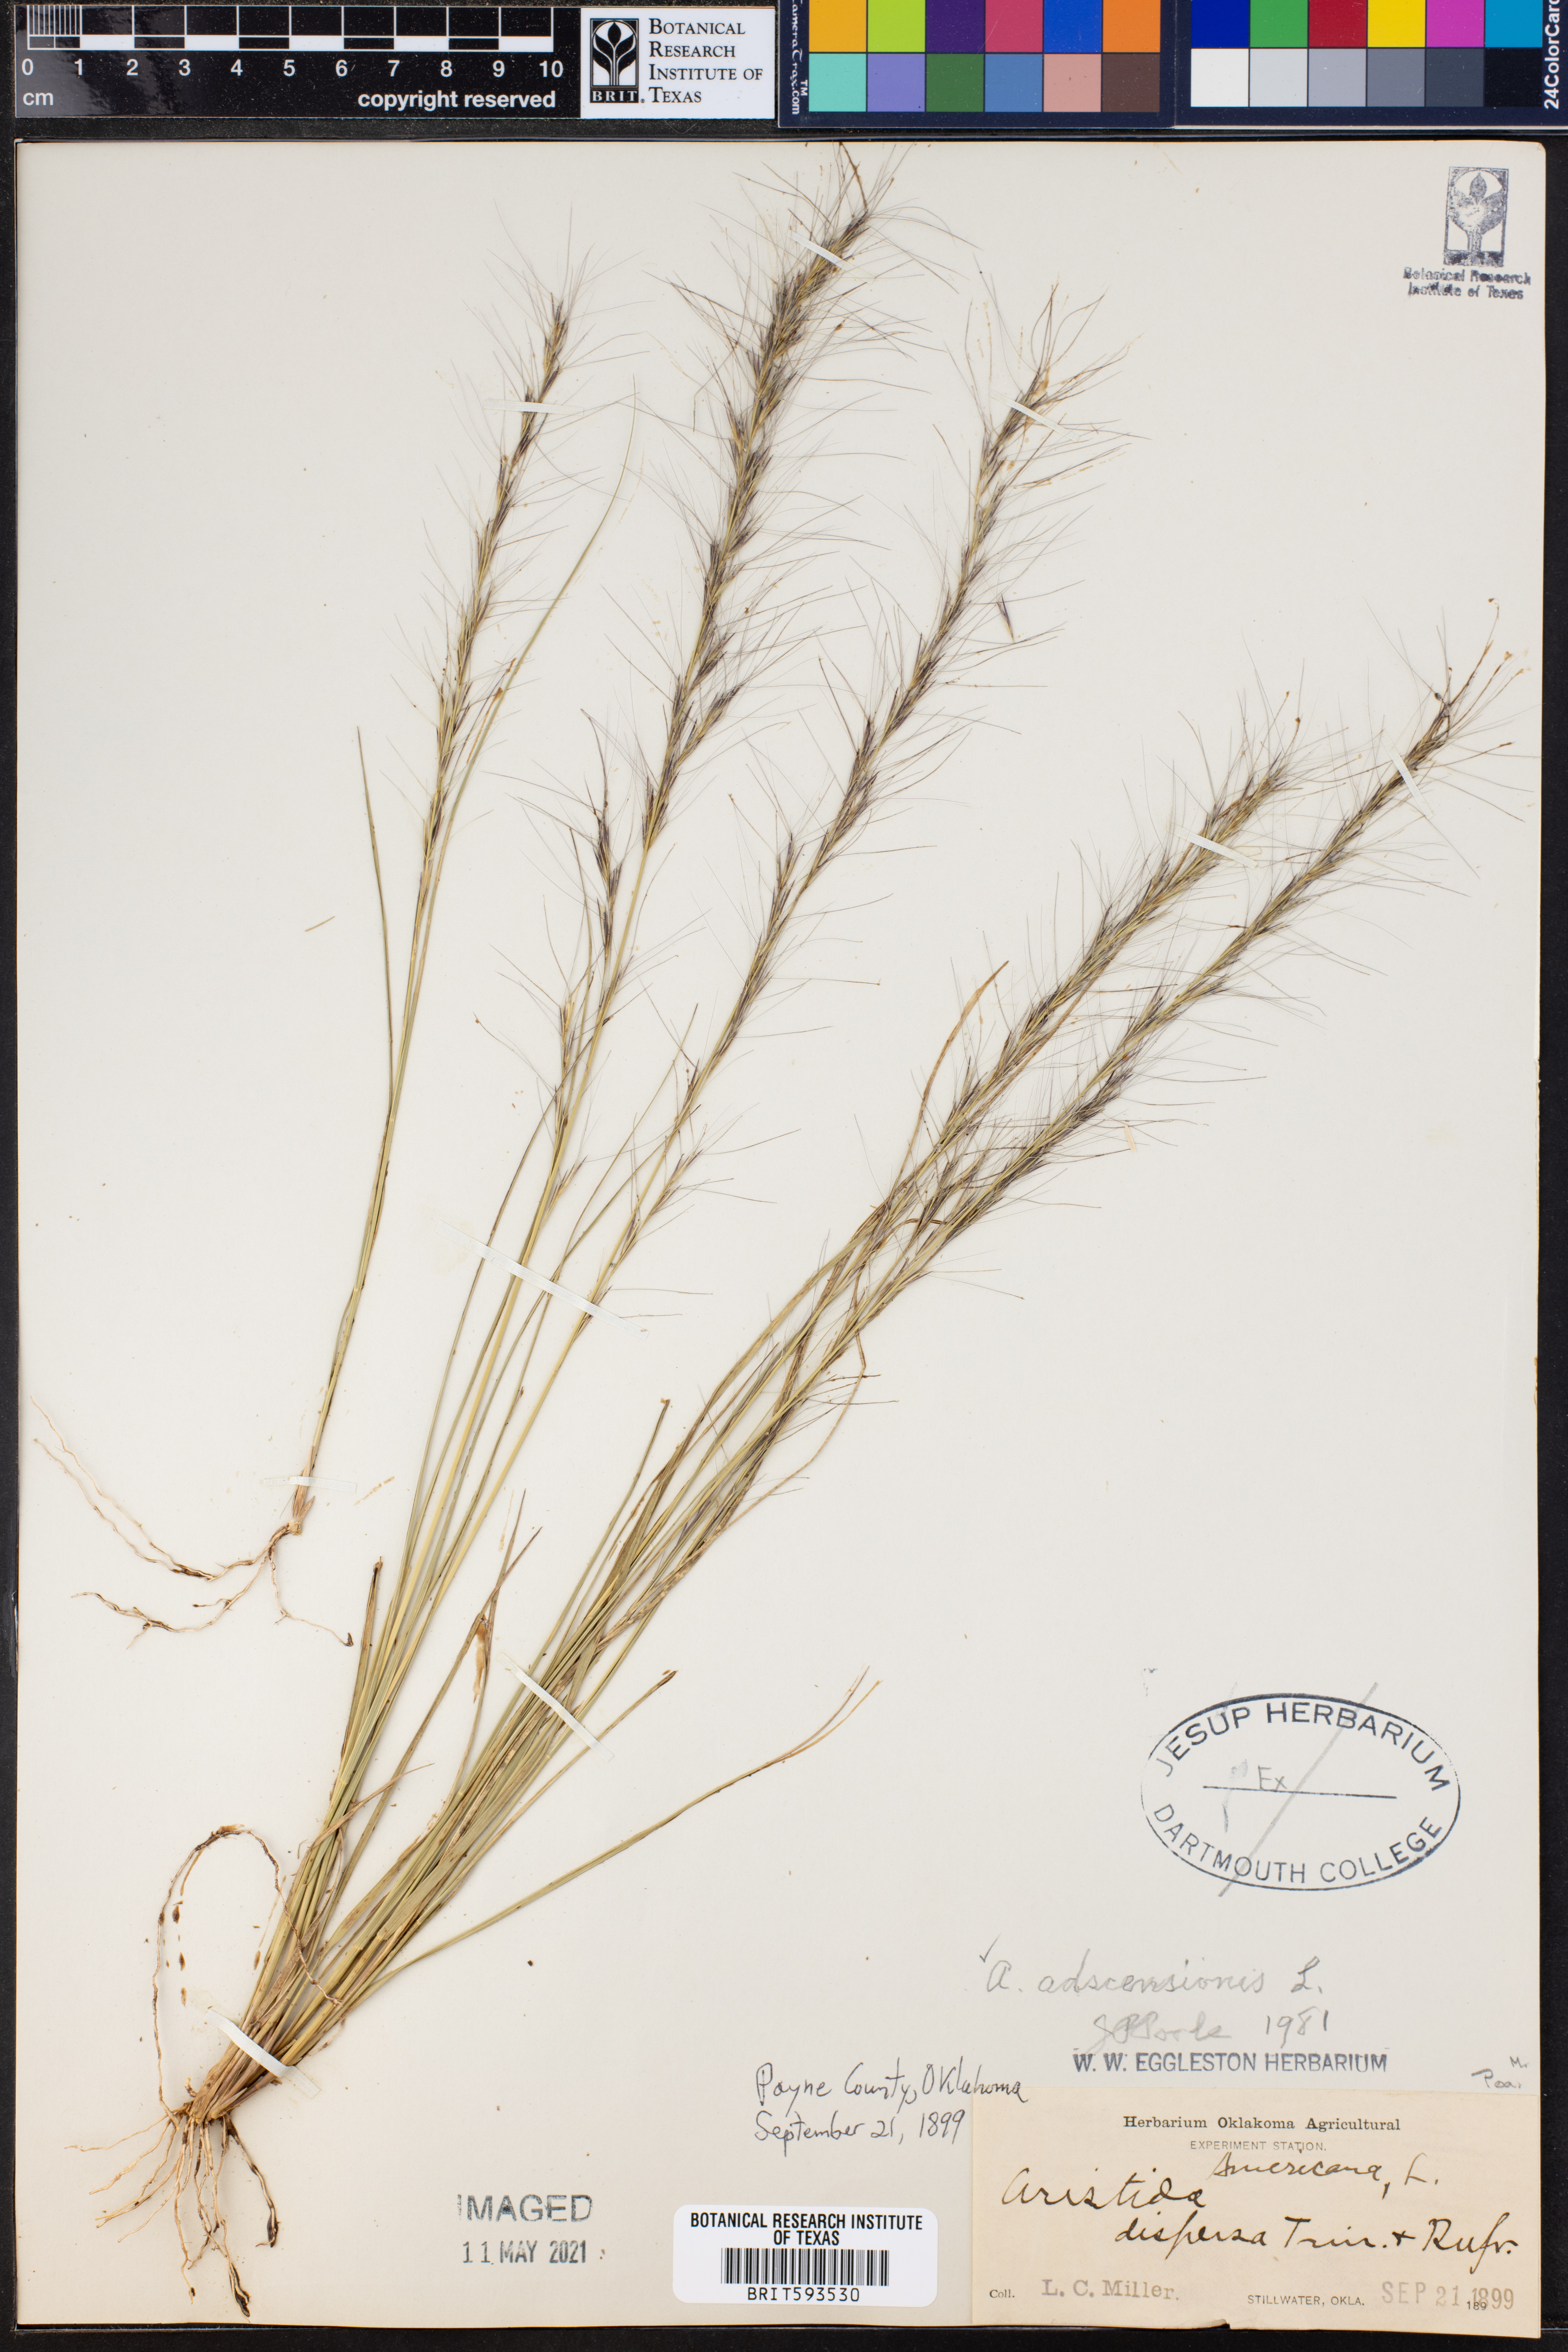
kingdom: Plantae
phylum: Tracheophyta
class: Liliopsida
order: Poales
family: Poaceae
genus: Aristida
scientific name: Aristida adscensionis
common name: Sixweeks threeawn
